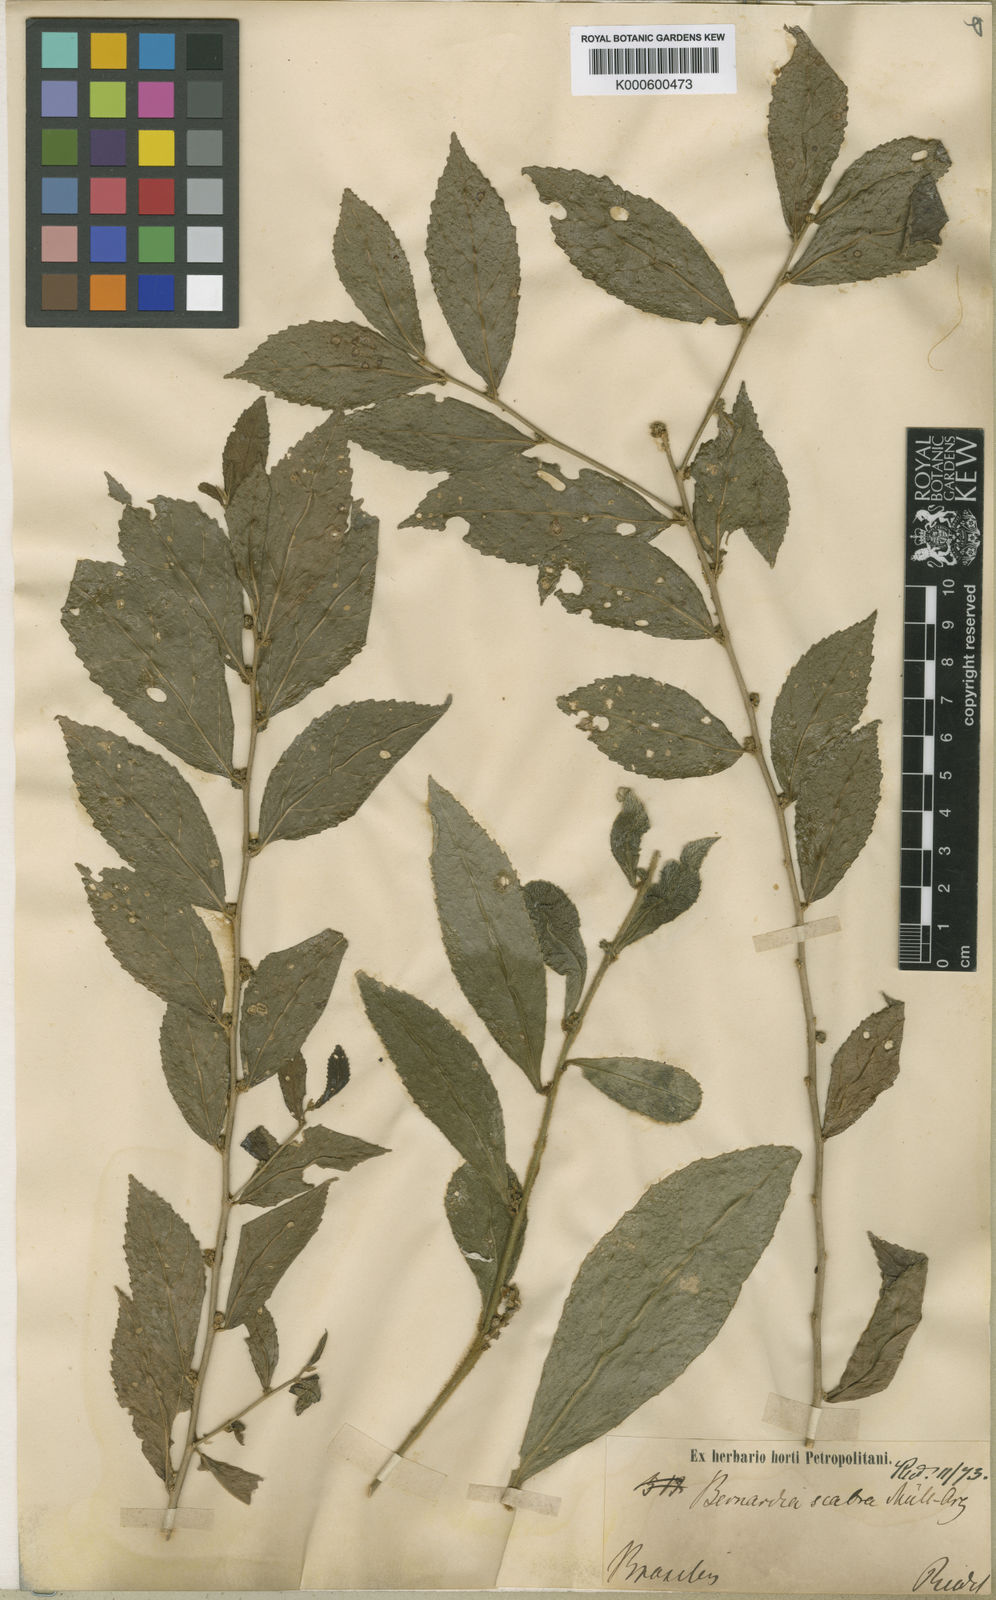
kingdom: Plantae
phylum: Tracheophyta
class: Magnoliopsida
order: Malpighiales
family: Euphorbiaceae
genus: Bernardia
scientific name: Bernardia
